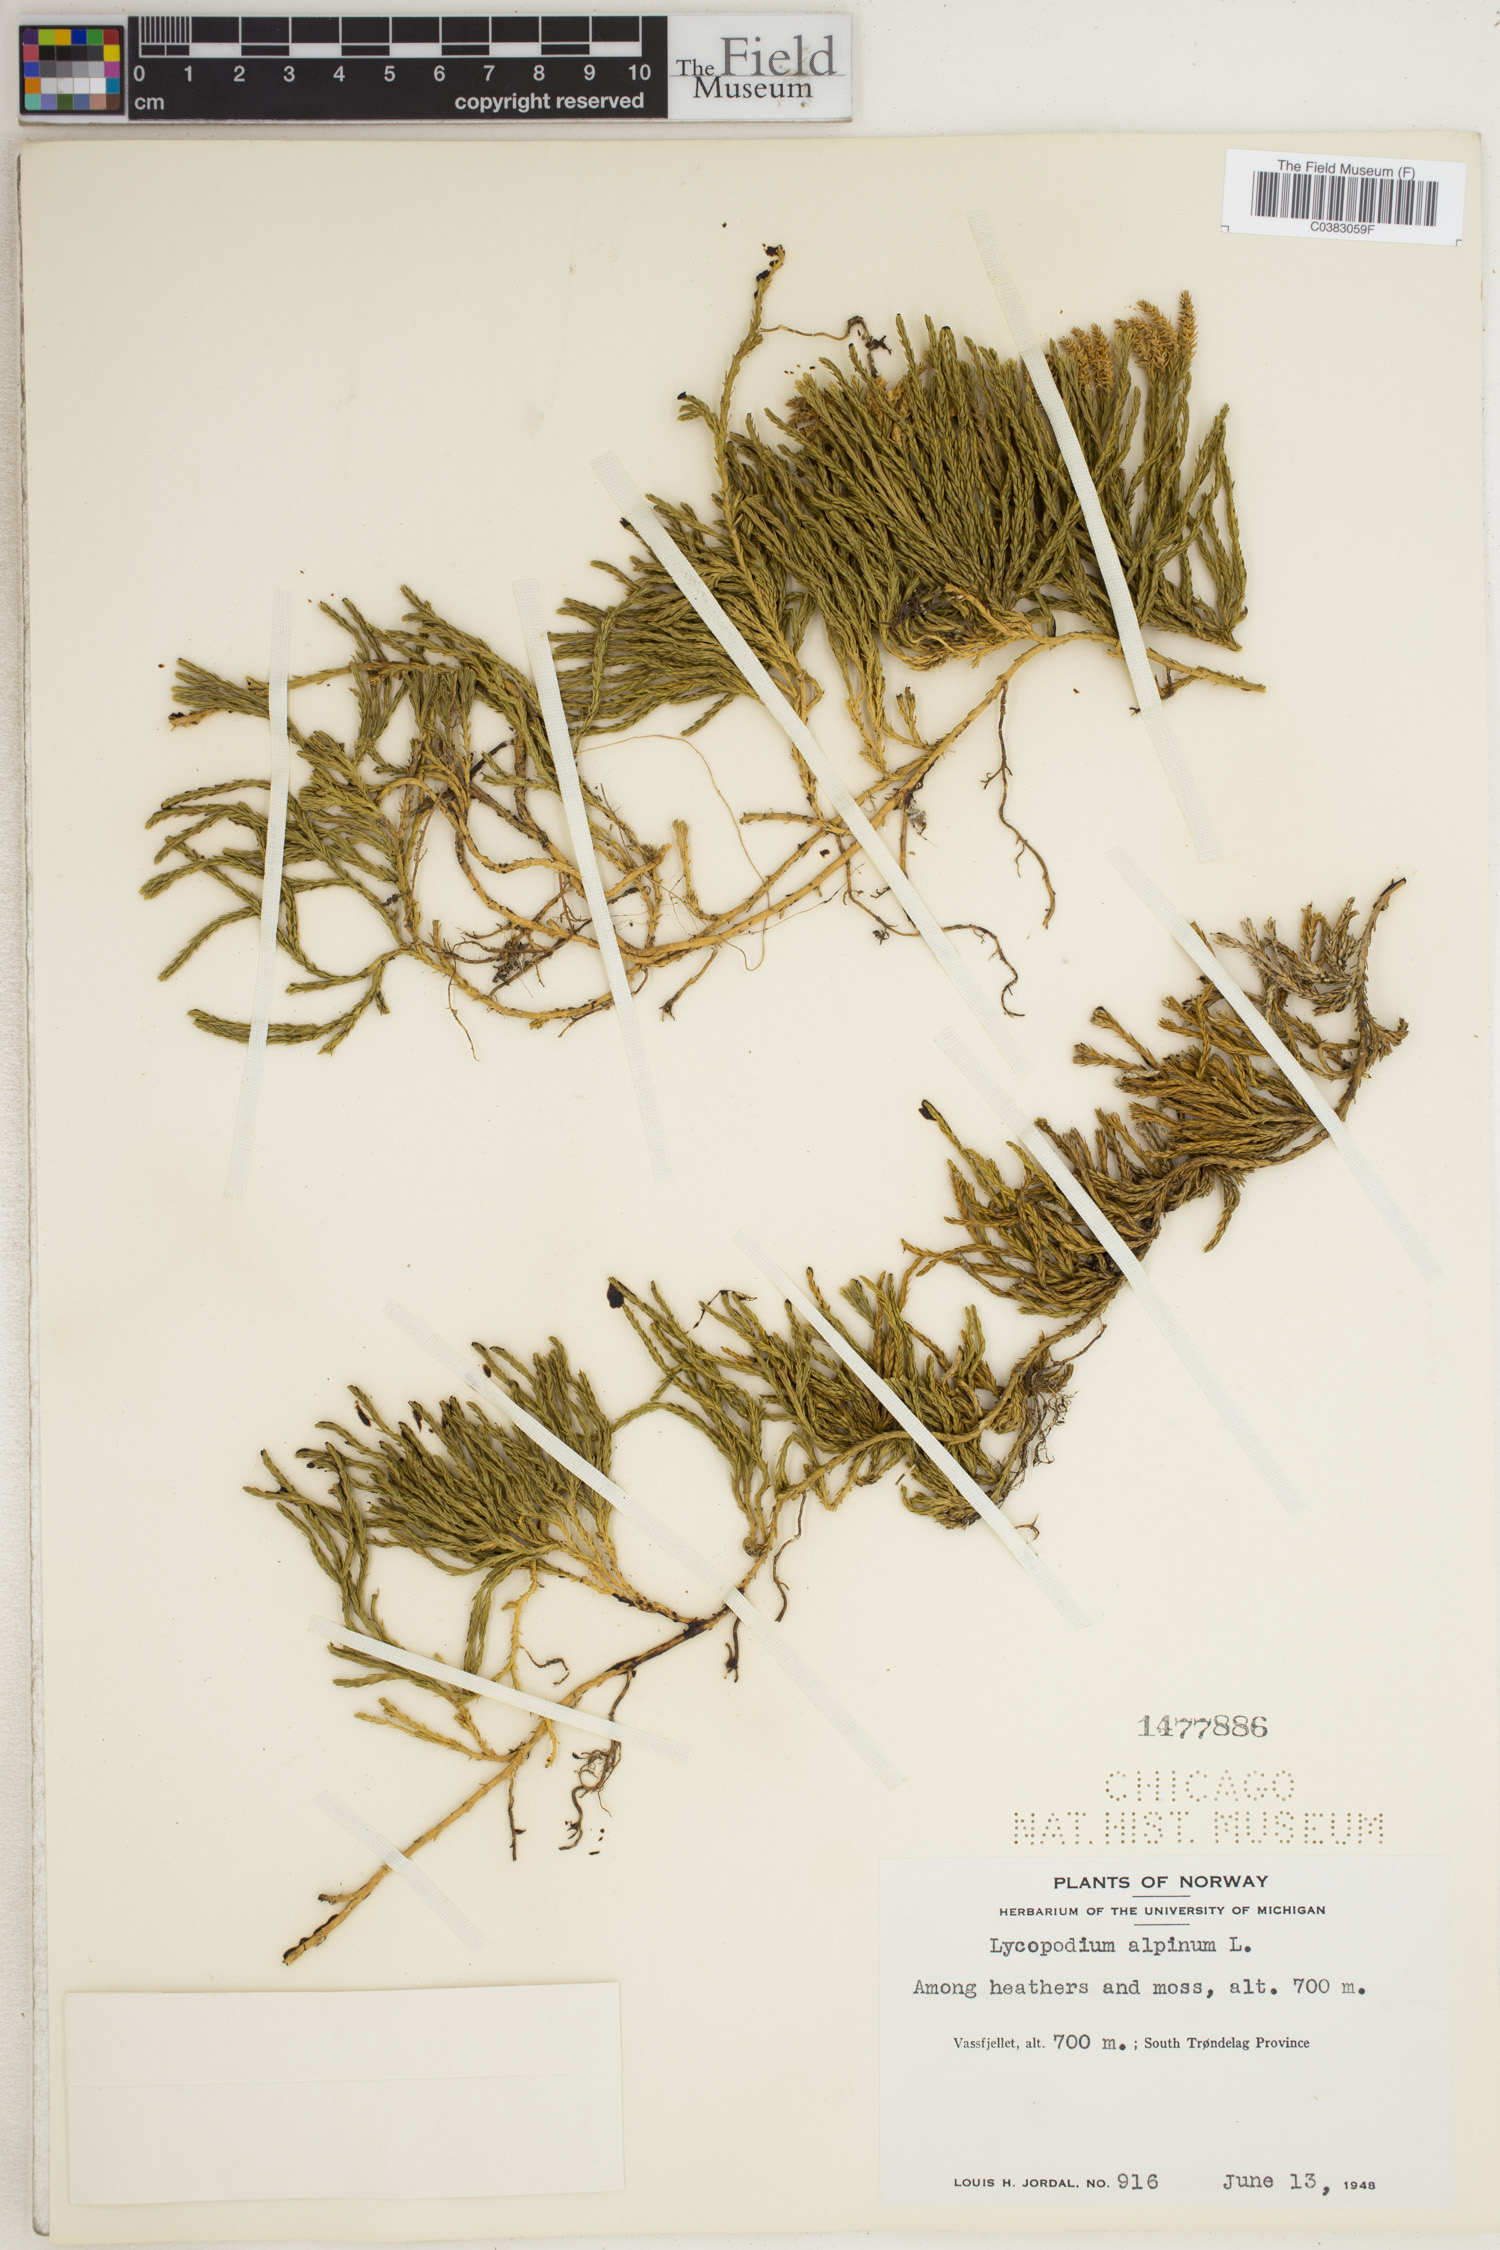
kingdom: Plantae
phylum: Tracheophyta
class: Lycopodiopsida
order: Lycopodiales
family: Lycopodiaceae
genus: Diphasiastrum
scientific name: Diphasiastrum alpinum
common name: Alpine clubmoss
